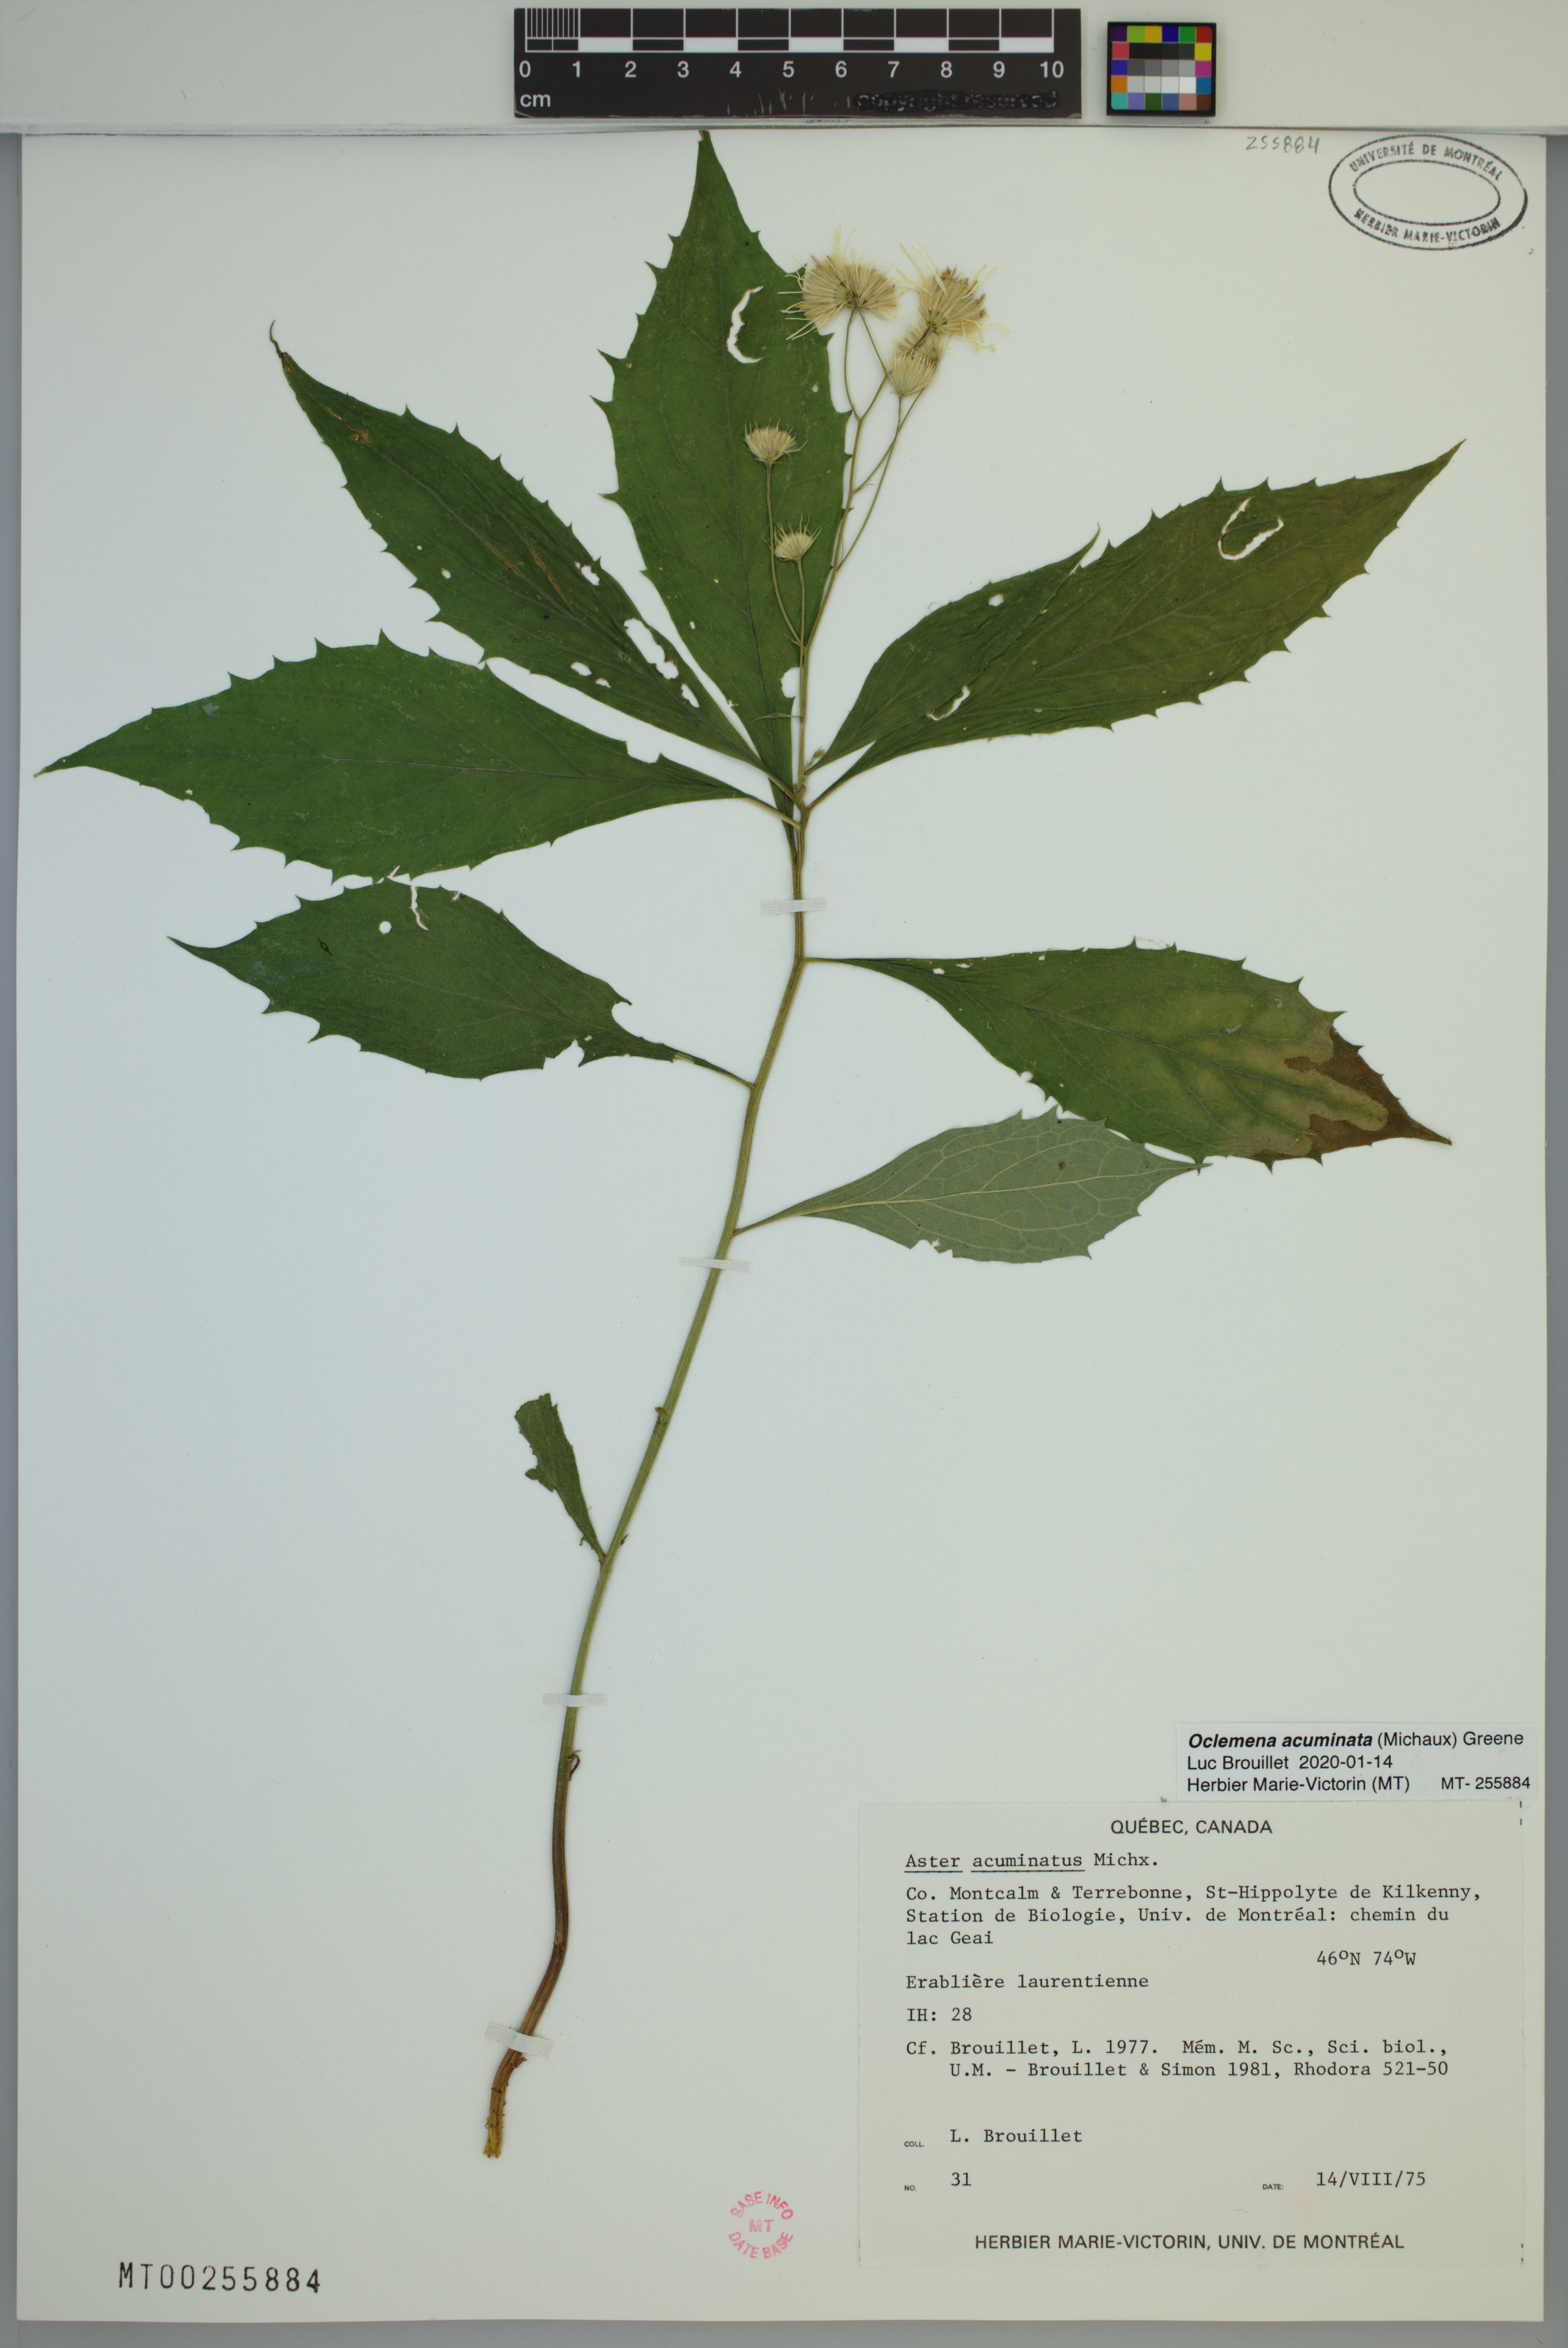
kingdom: Plantae
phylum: Tracheophyta
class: Magnoliopsida
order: Asterales
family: Asteraceae
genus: Oclemena
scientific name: Oclemena acuminata
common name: Mountain aster
